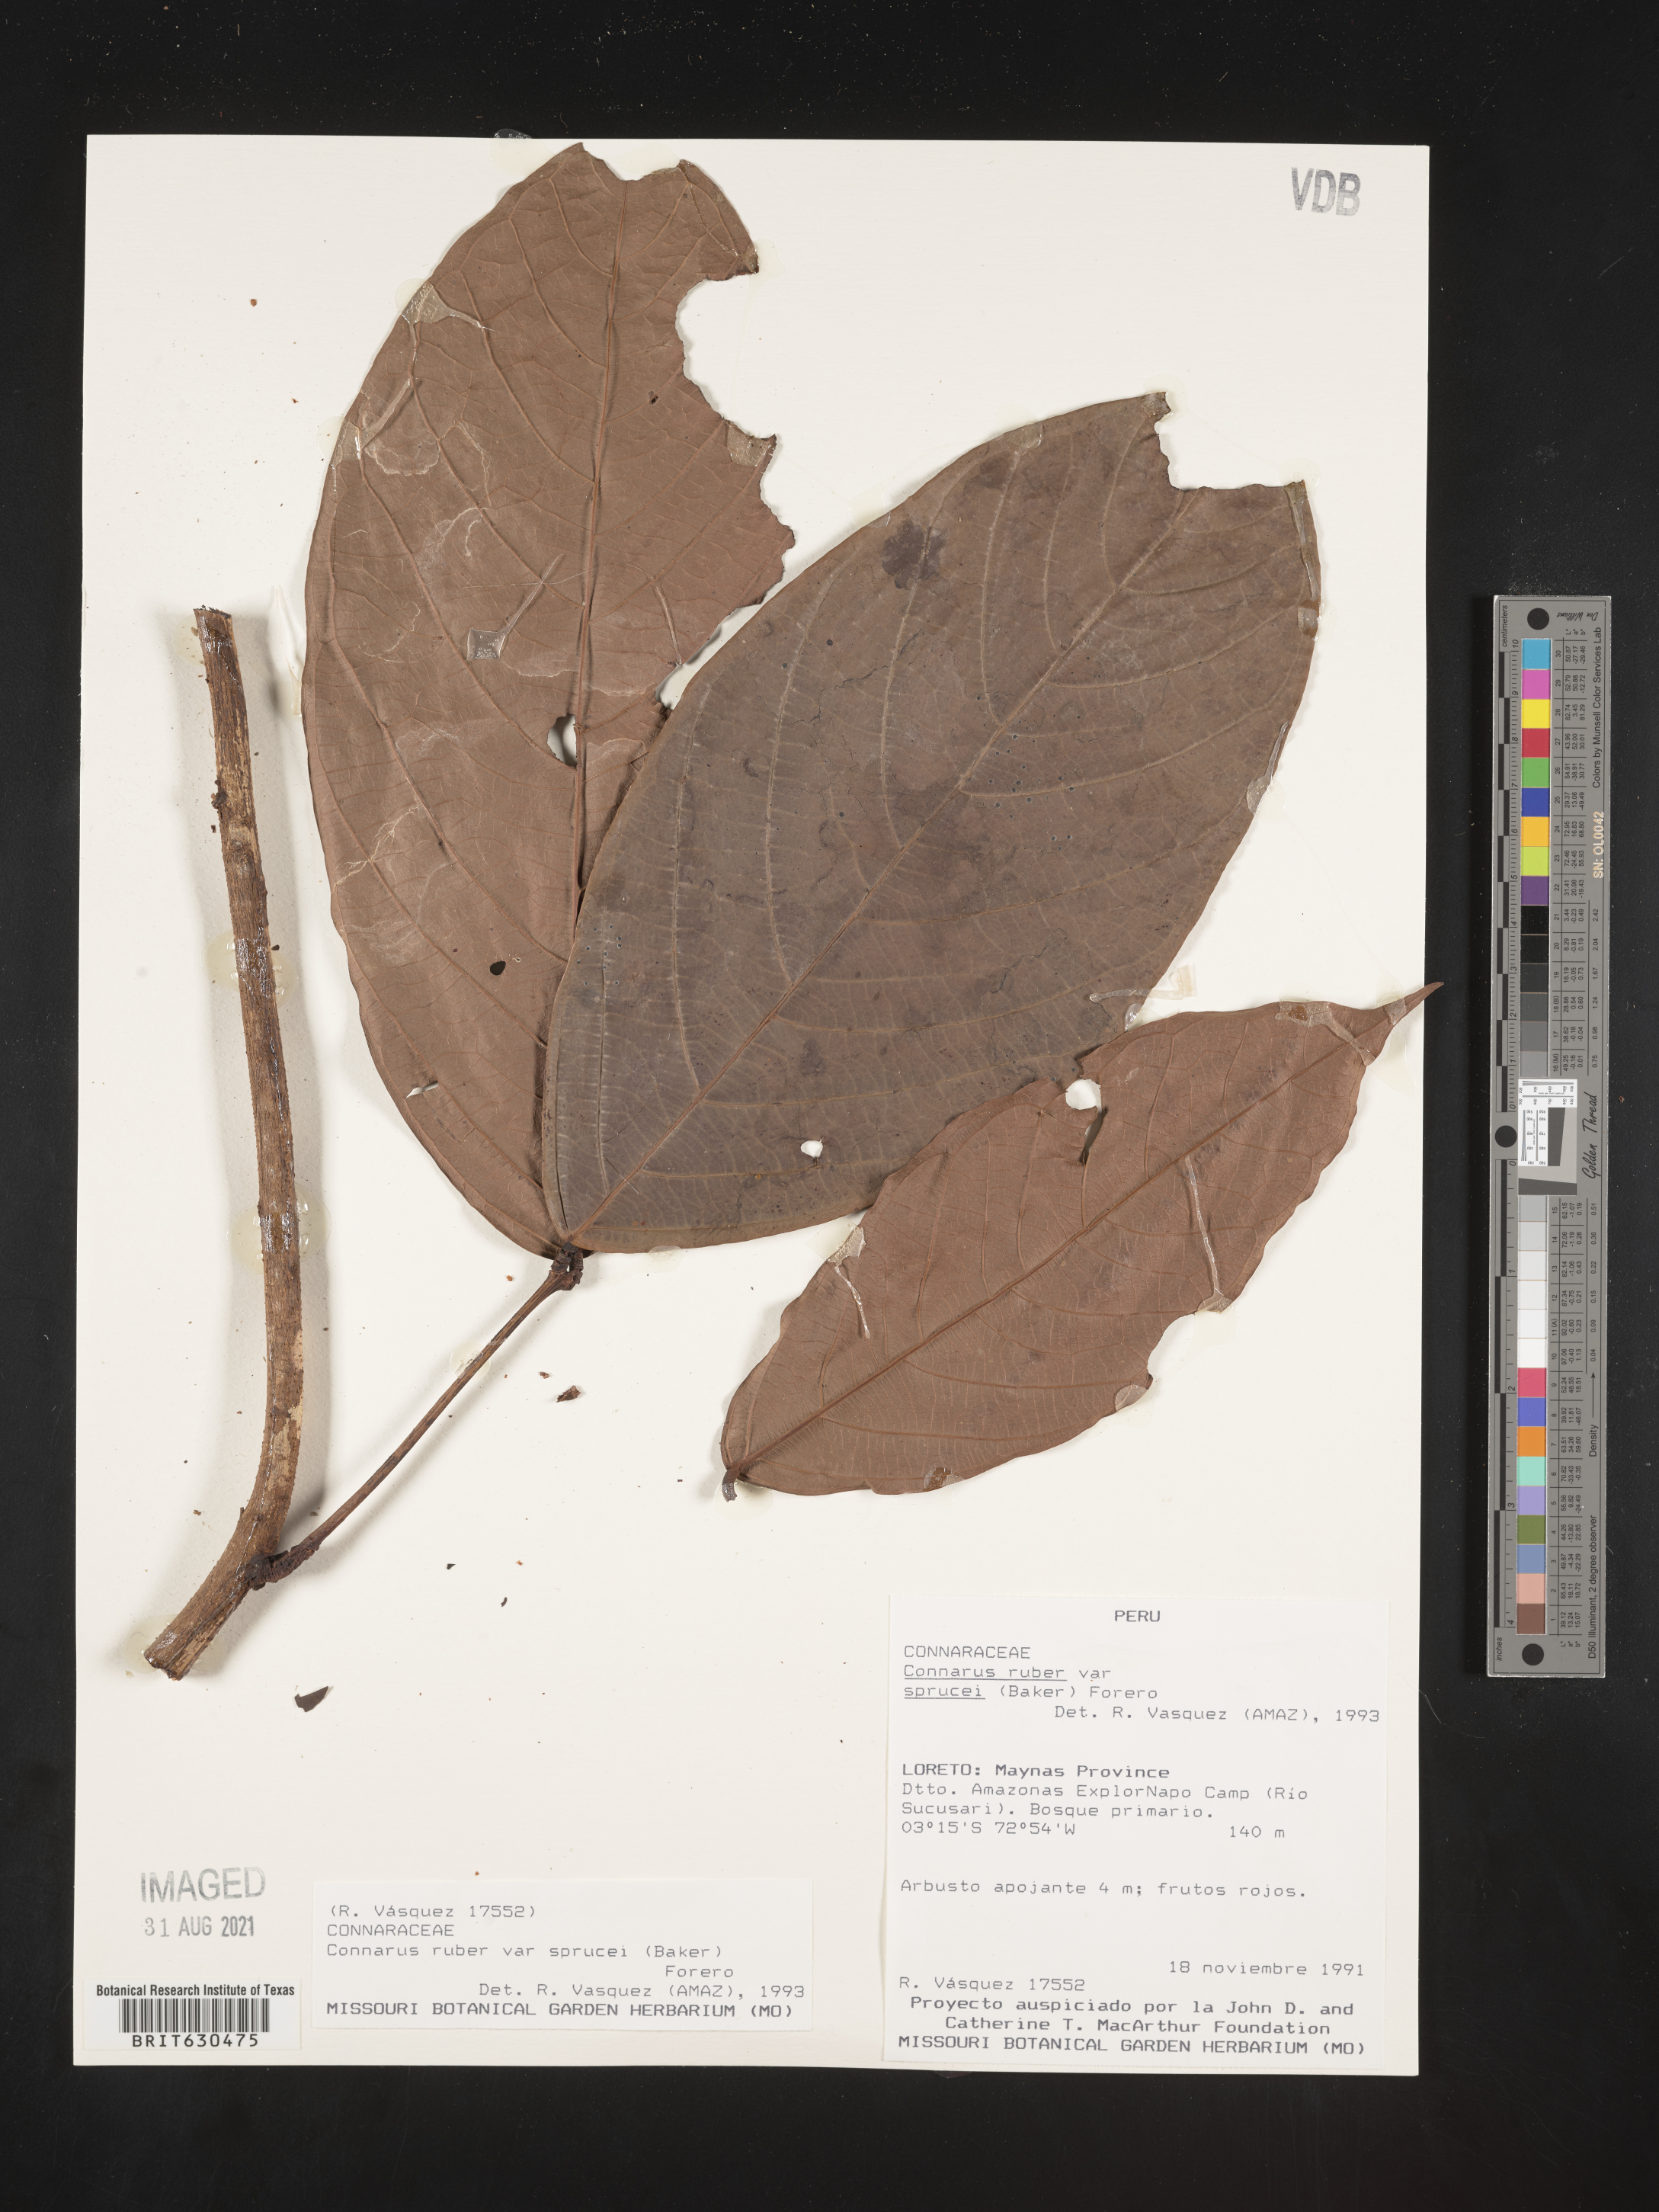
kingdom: Plantae
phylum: Tracheophyta
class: Magnoliopsida
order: Oxalidales
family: Connaraceae
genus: Connarus
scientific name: Connarus ruber
